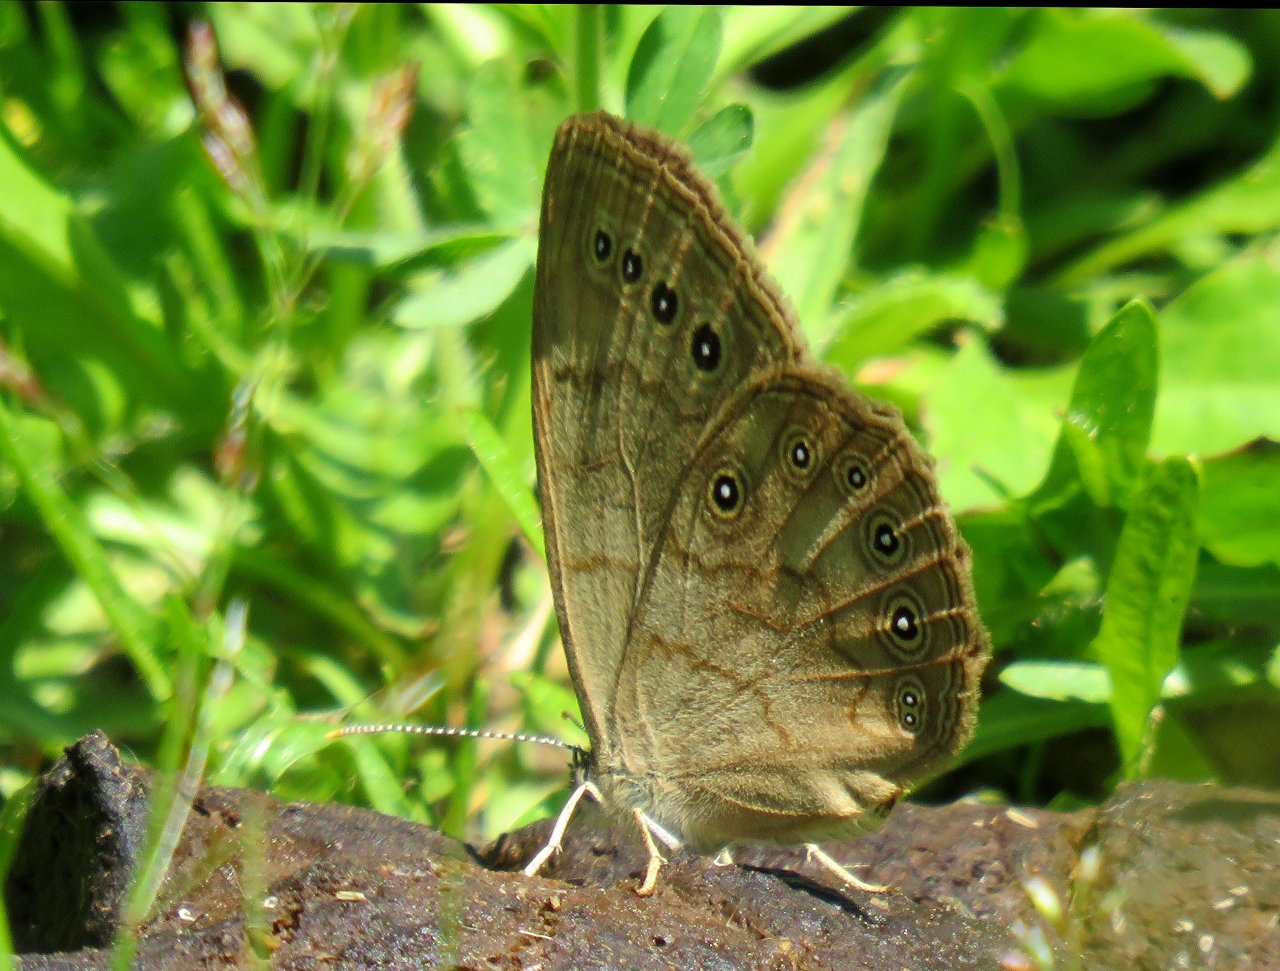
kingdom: Animalia
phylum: Arthropoda
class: Insecta
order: Lepidoptera
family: Nymphalidae
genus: Lethe
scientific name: Lethe eurydice
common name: Eyed Brown
